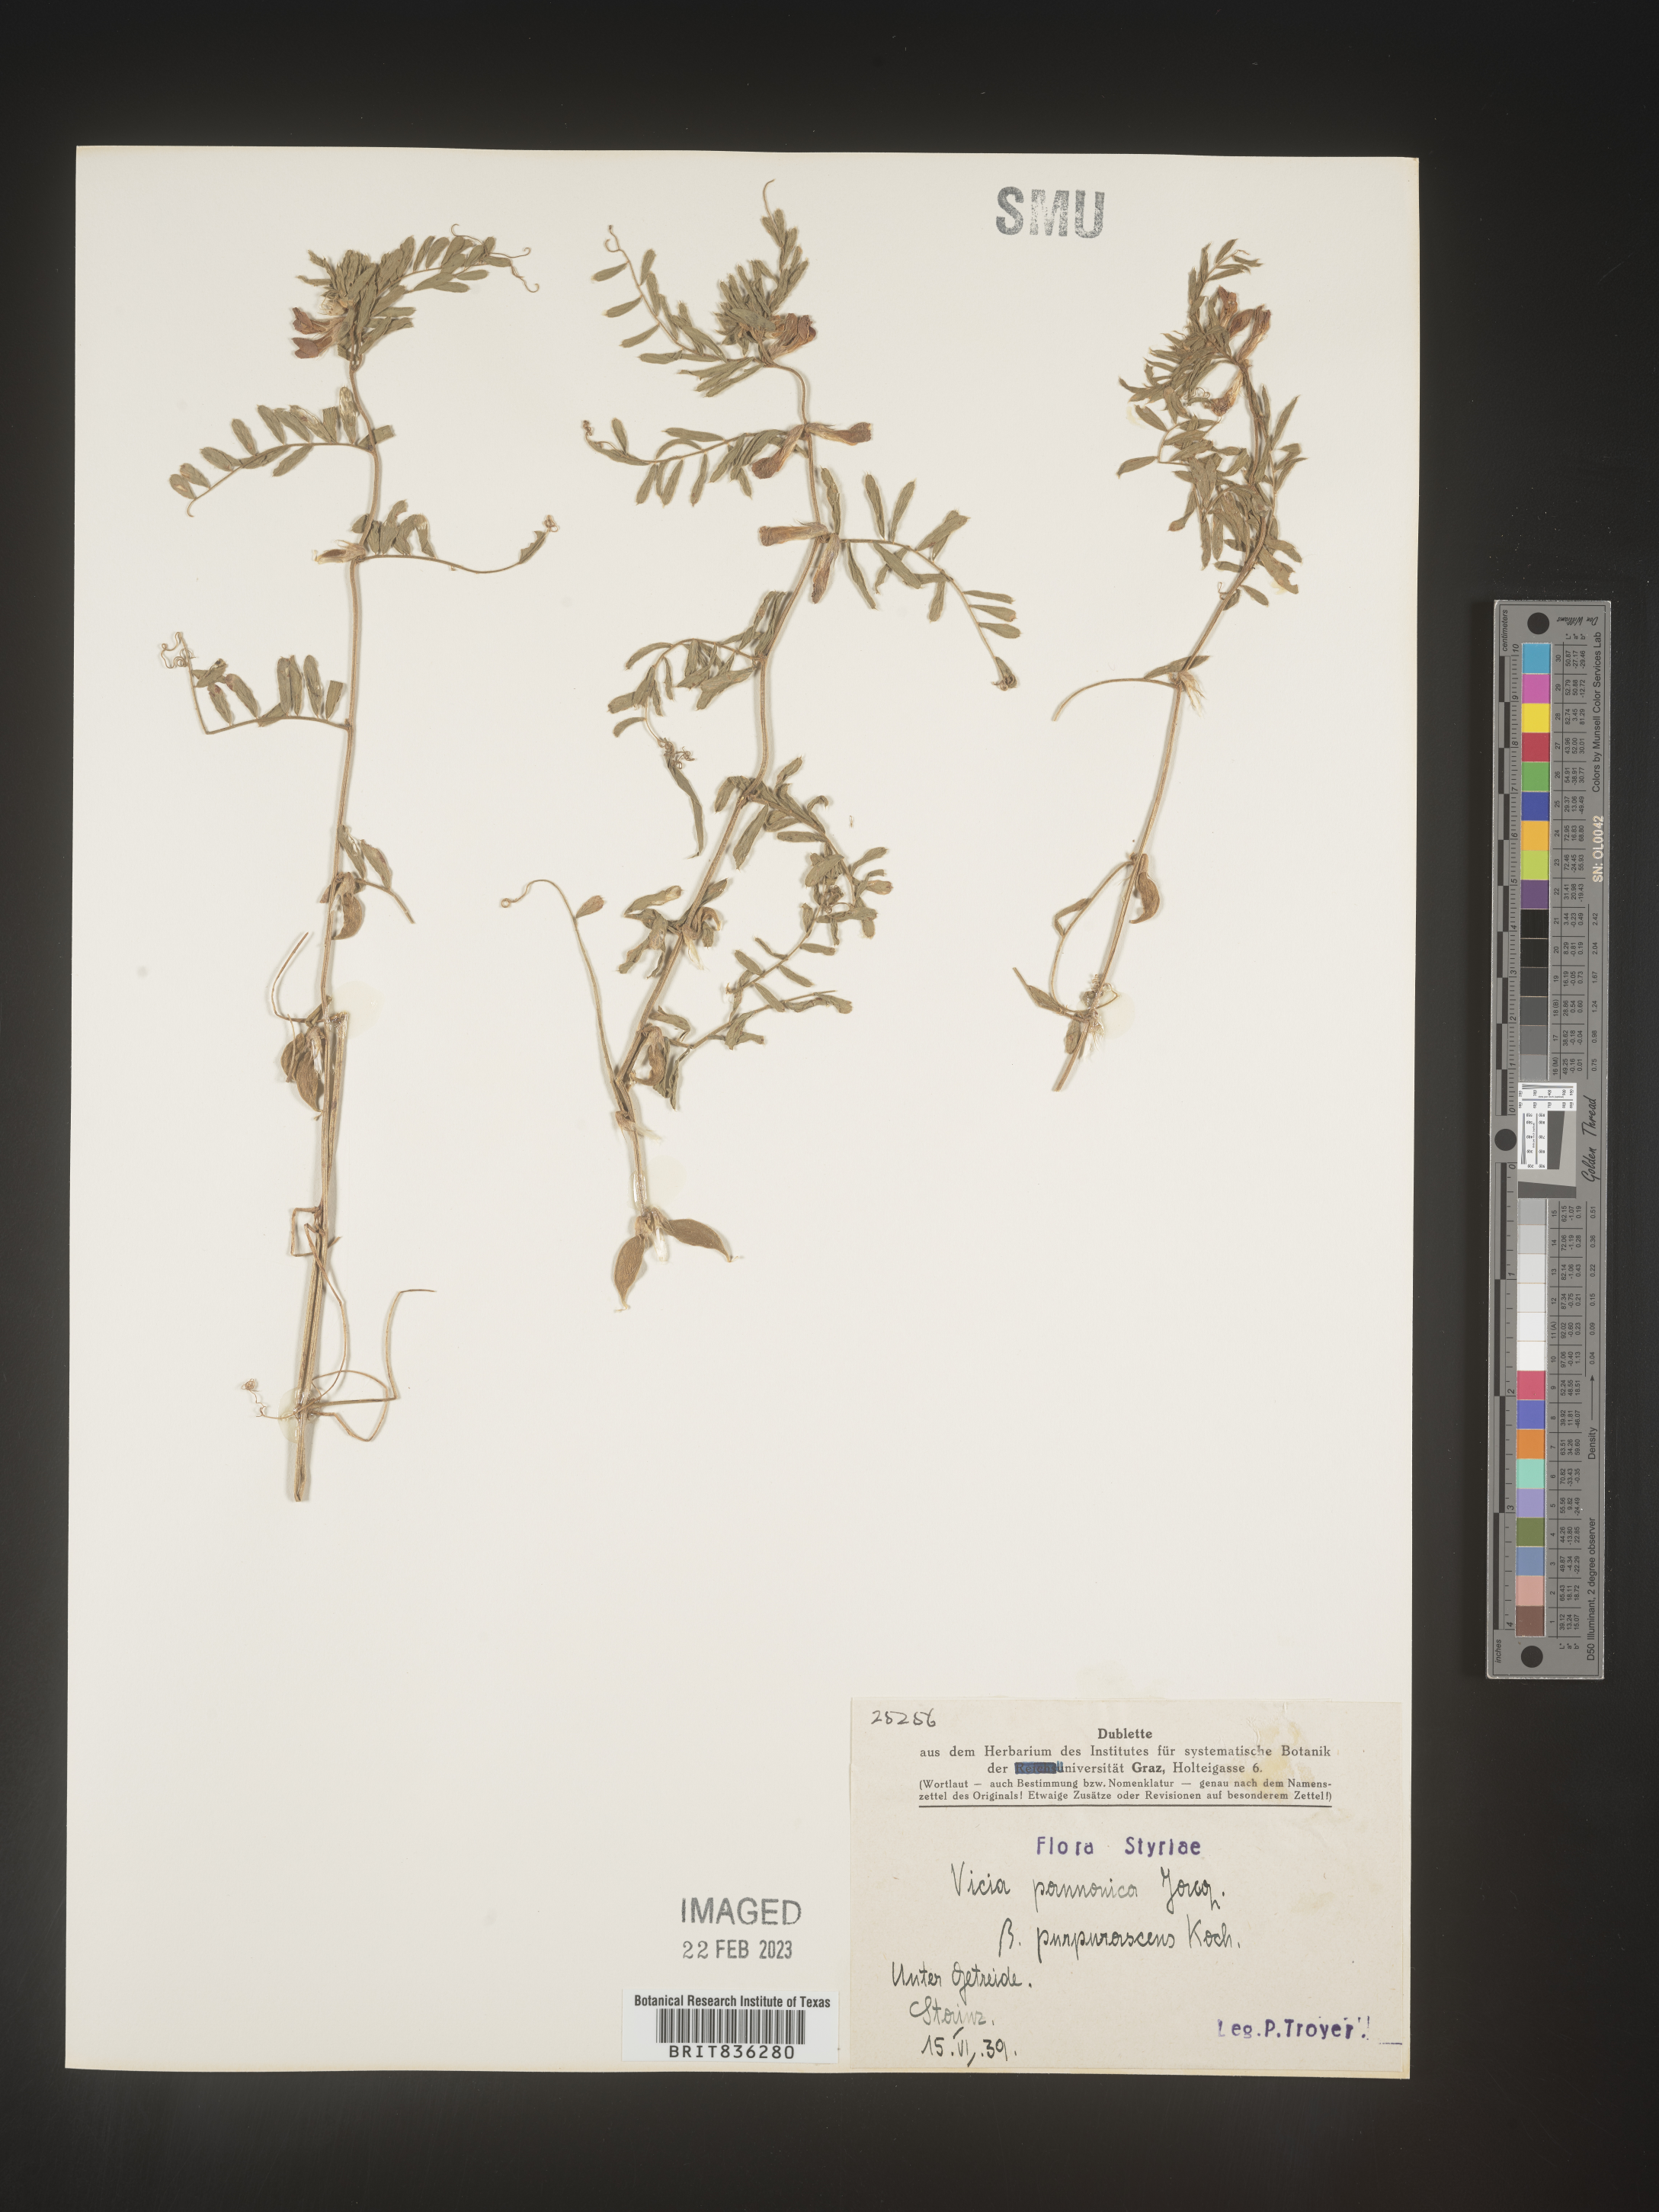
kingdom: Plantae
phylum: Tracheophyta
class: Magnoliopsida
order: Fabales
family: Fabaceae
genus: Vicia
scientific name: Vicia
